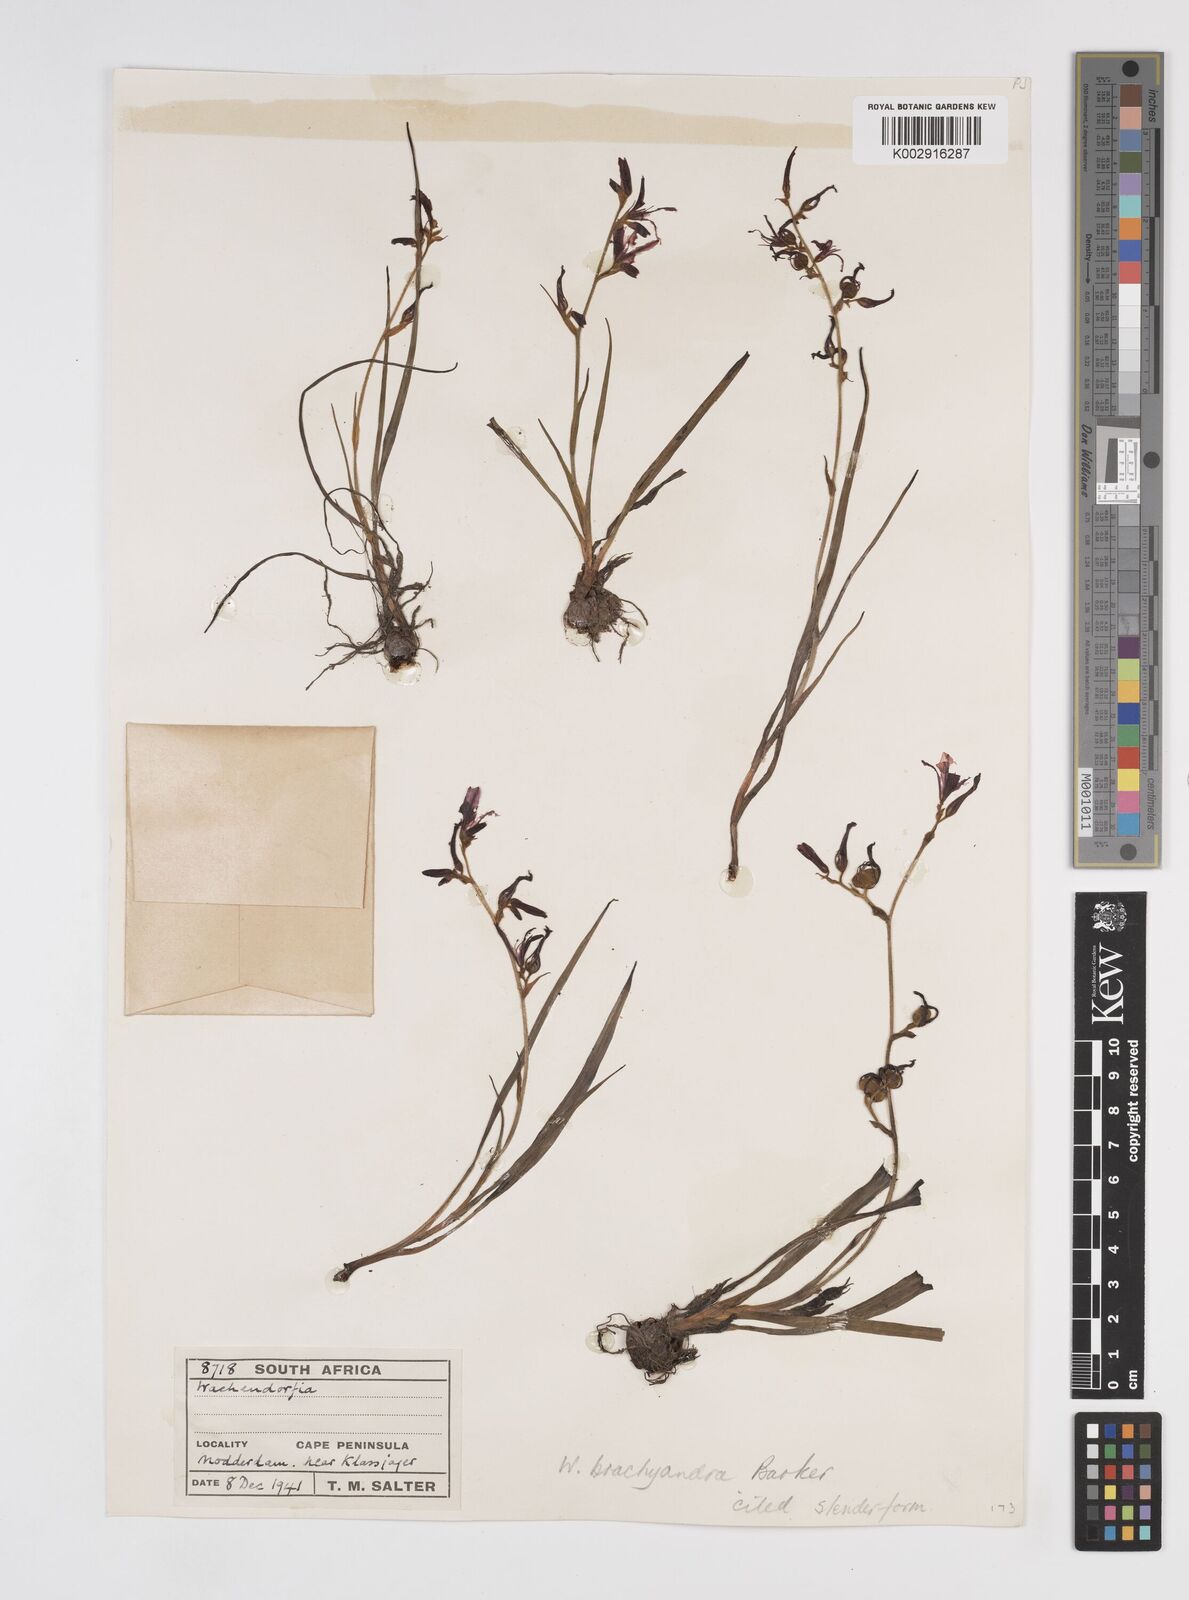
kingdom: Plantae
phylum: Tracheophyta
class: Liliopsida
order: Commelinales
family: Haemodoraceae
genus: Wachendorfia
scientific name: Wachendorfia brachyandra
